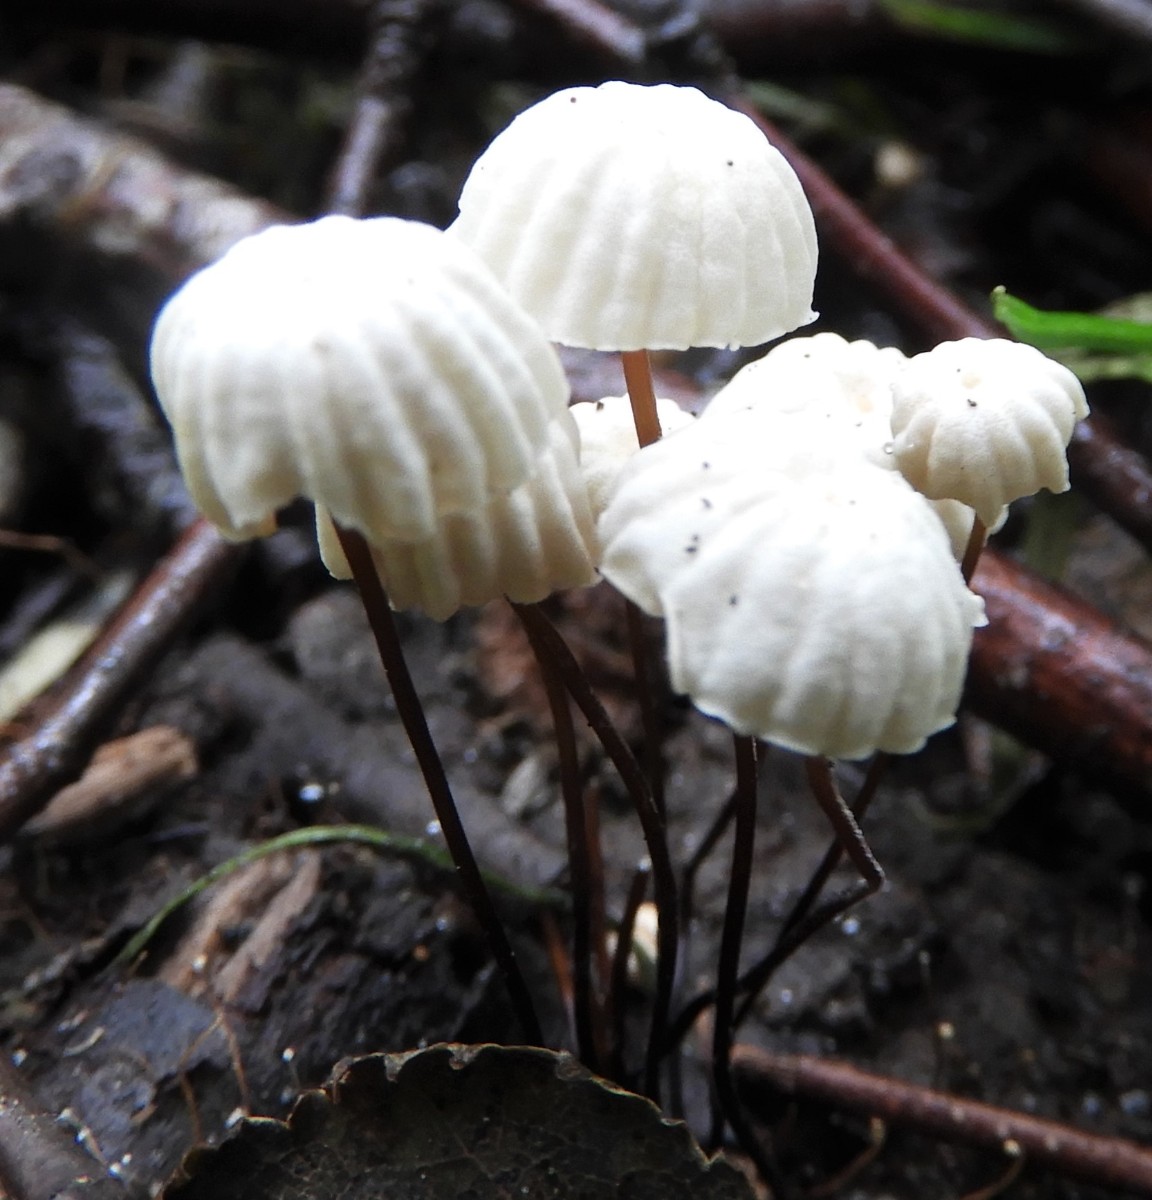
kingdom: Fungi
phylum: Basidiomycota
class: Agaricomycetes
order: Agaricales
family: Marasmiaceae
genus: Marasmius
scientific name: Marasmius rotula
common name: hjul-bruskhat
